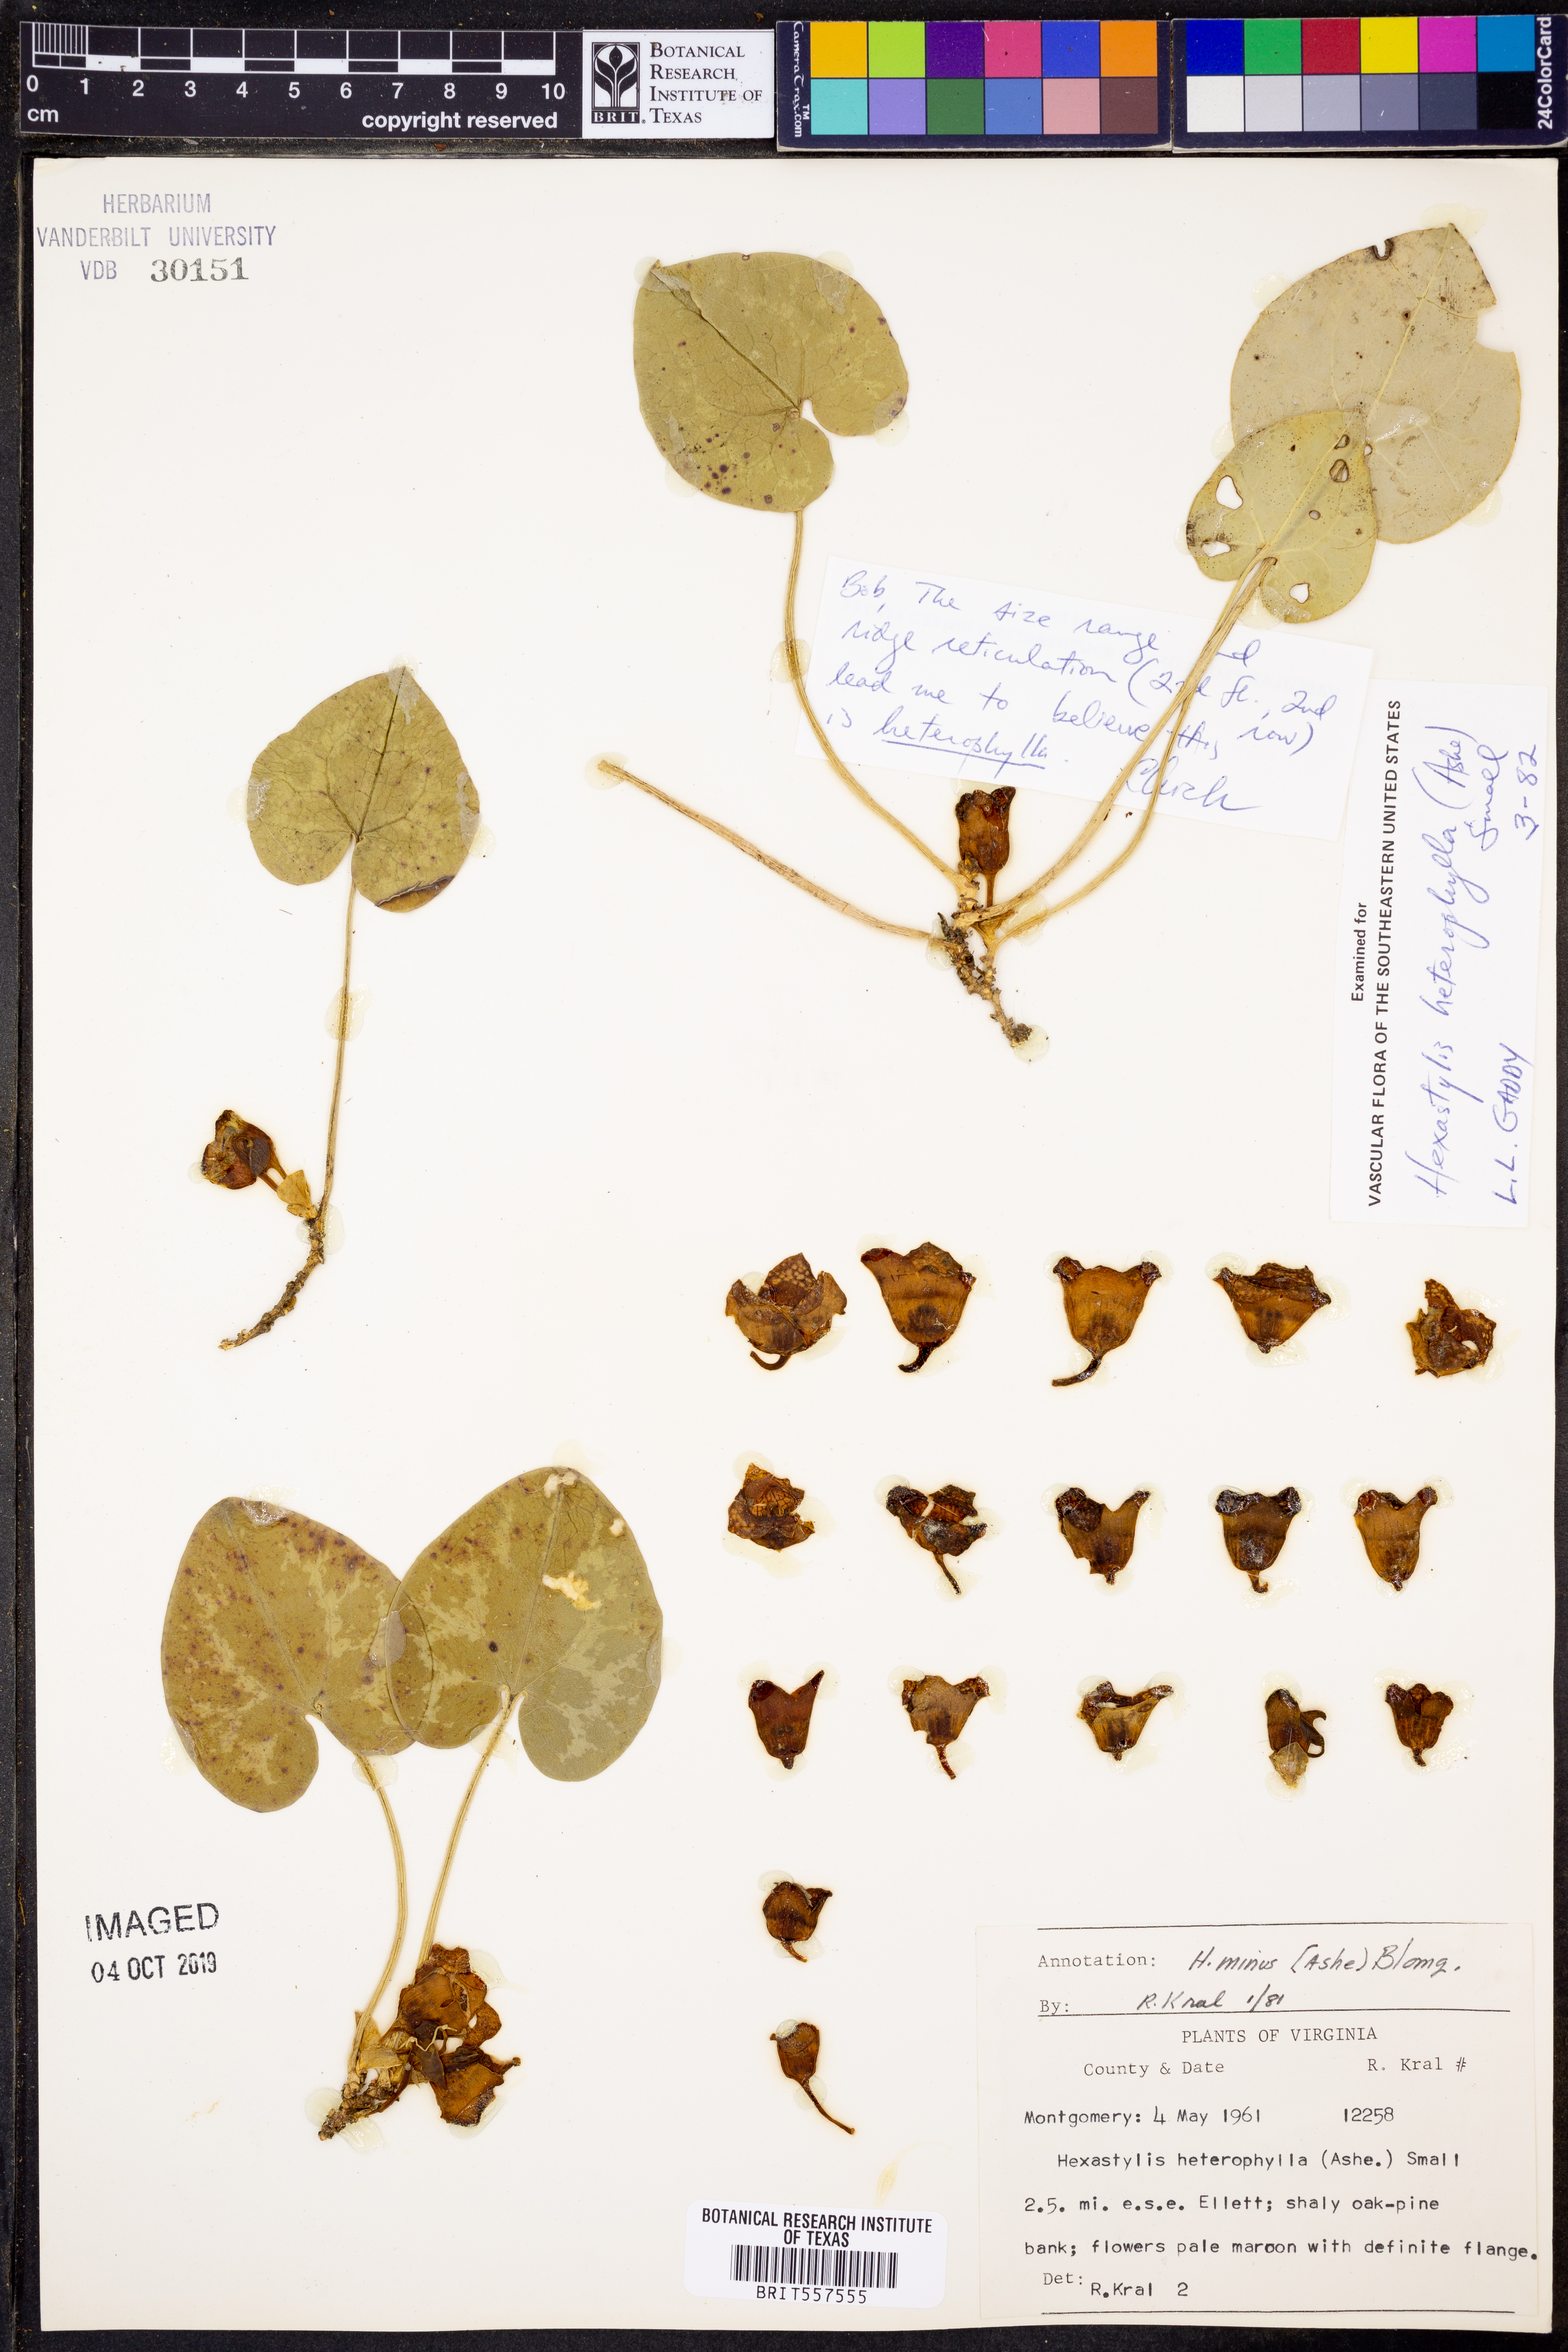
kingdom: Plantae
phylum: Tracheophyta
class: Magnoliopsida
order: Piperales
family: Aristolochiaceae
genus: Hexastylis
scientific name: Hexastylis minor
